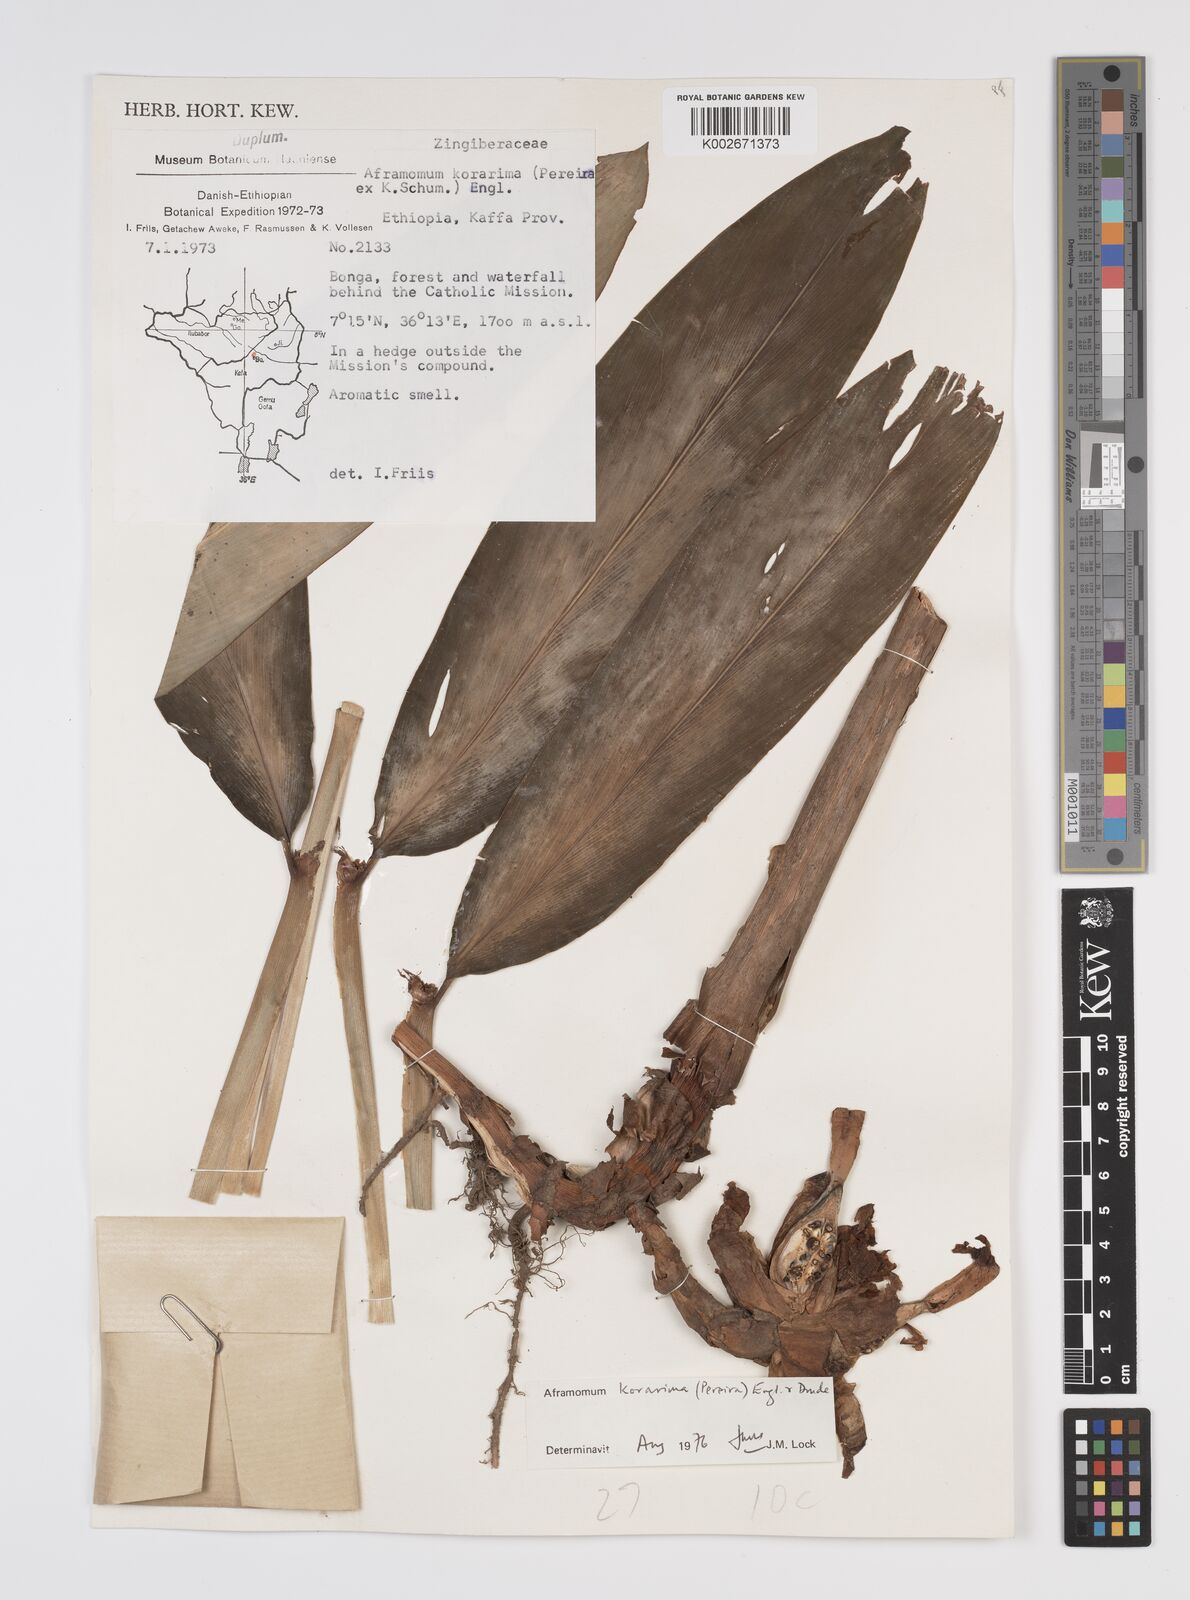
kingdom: Plantae
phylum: Tracheophyta
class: Liliopsida
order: Zingiberales
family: Zingiberaceae
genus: Aframomum
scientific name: Aframomum corrorima
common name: Ethiopian cardamom
